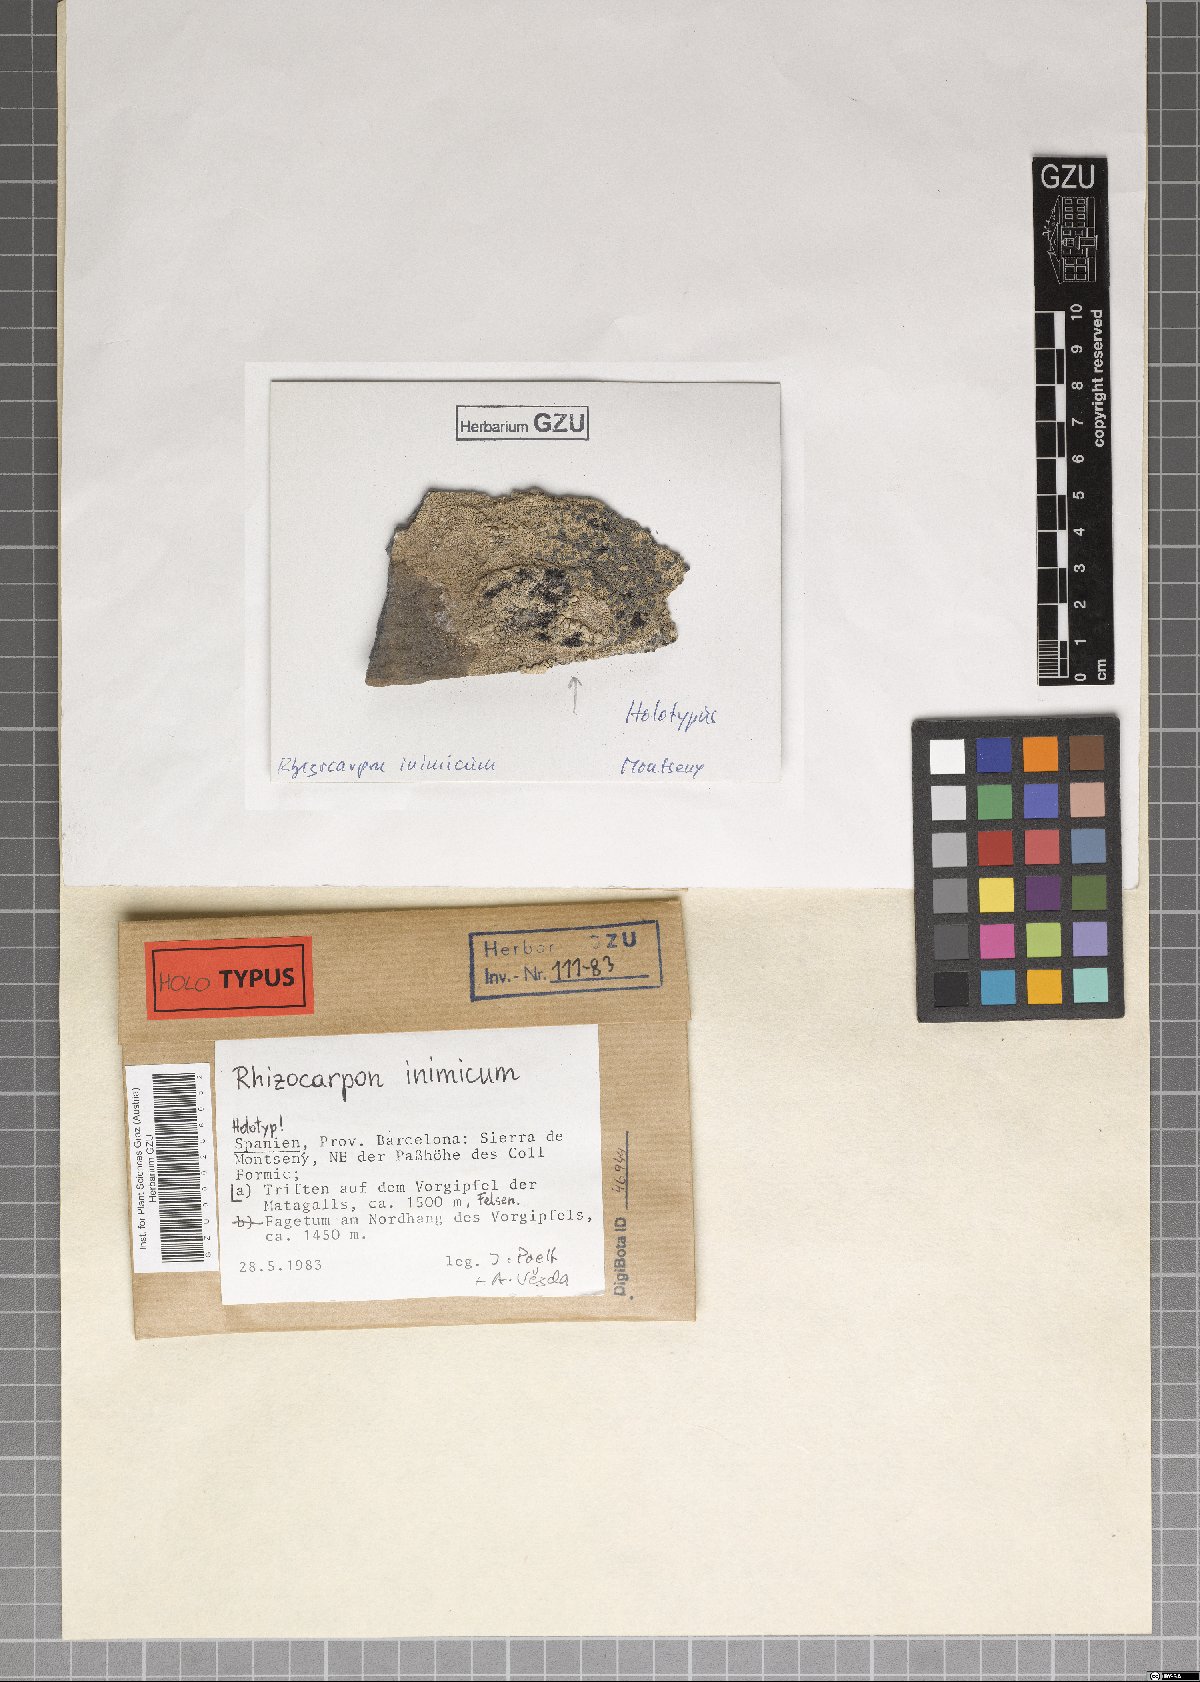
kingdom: Fungi
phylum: Ascomycota
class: Lecanoromycetes
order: Rhizocarpales
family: Rhizocarpaceae
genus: Rhizocarpon
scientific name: Rhizocarpon inimicum
